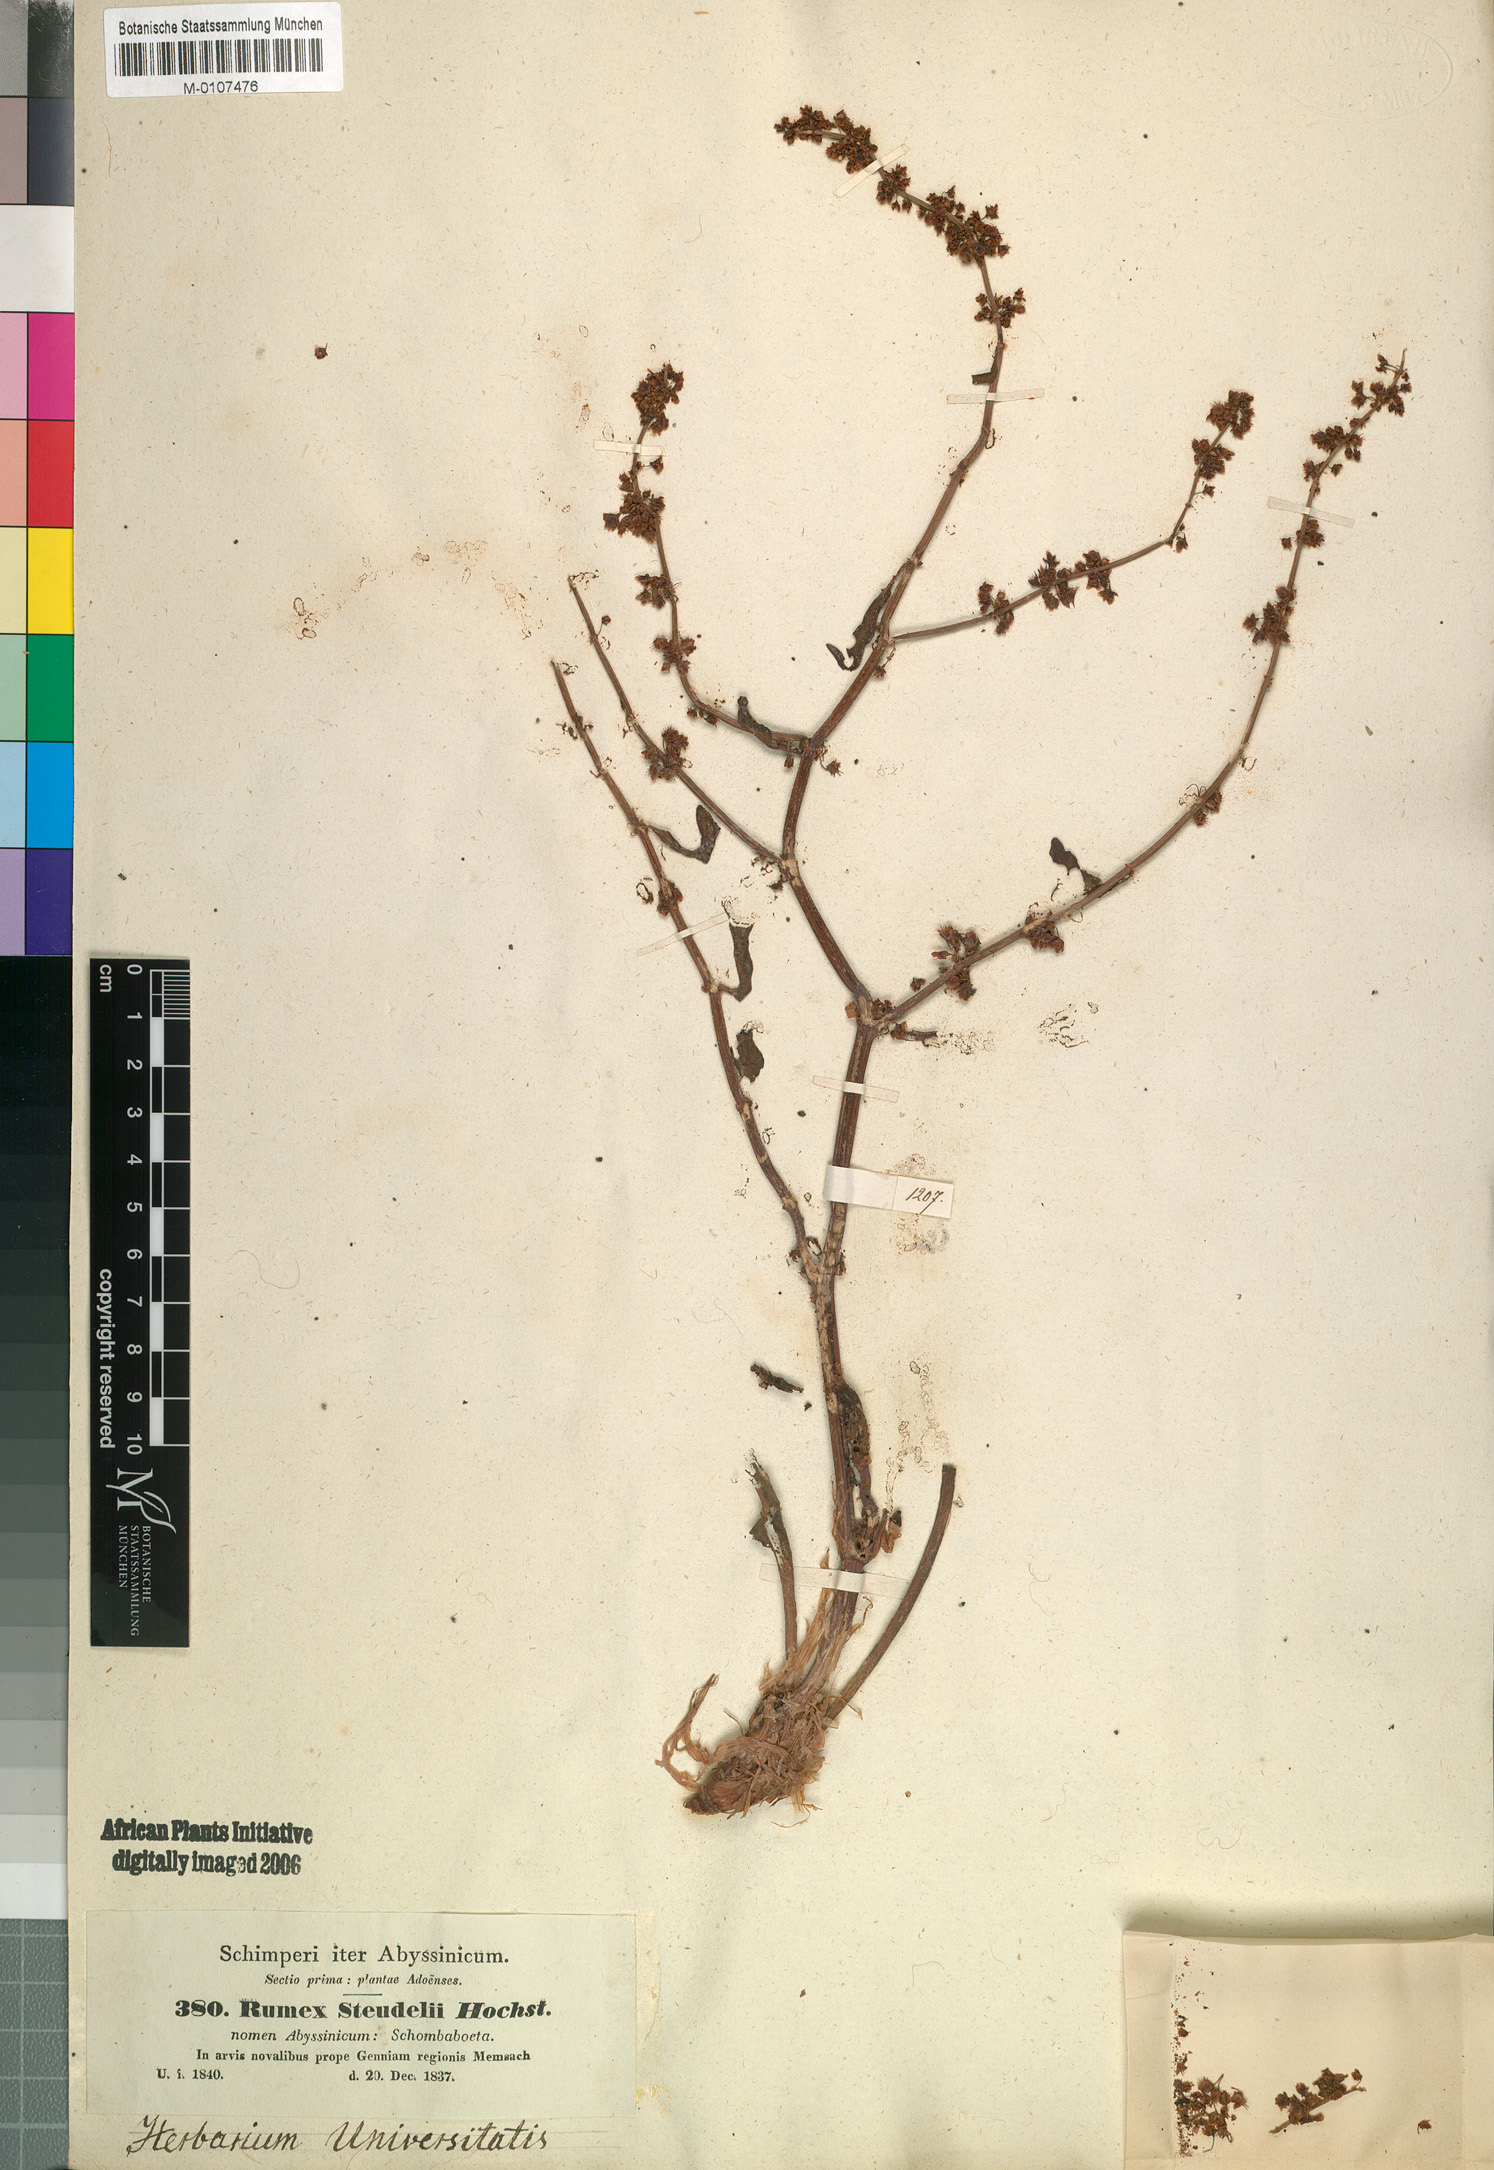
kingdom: Plantae
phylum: Tracheophyta
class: Magnoliopsida
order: Caryophyllales
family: Polygonaceae
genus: Rumex
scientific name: Rumex nepalensis
